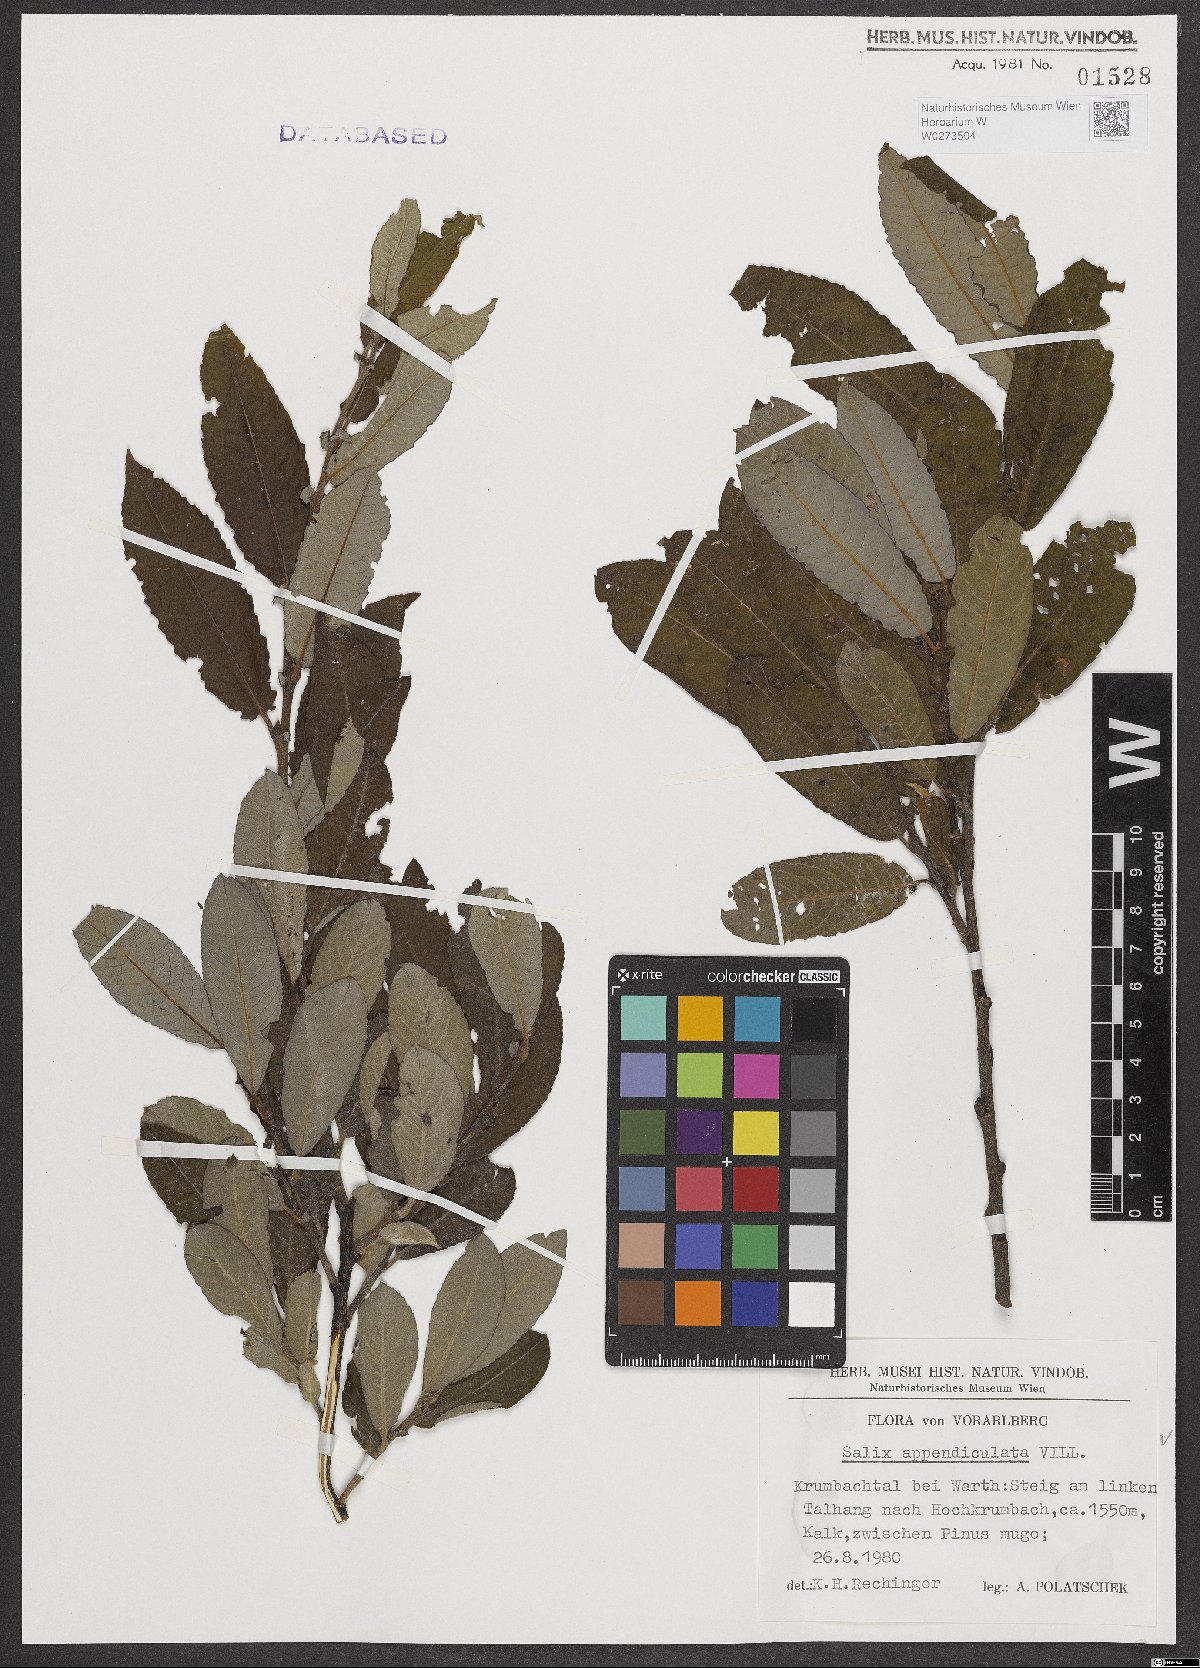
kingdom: Plantae
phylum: Tracheophyta
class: Magnoliopsida
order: Malpighiales
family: Salicaceae
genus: Salix
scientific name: Salix appendiculata
